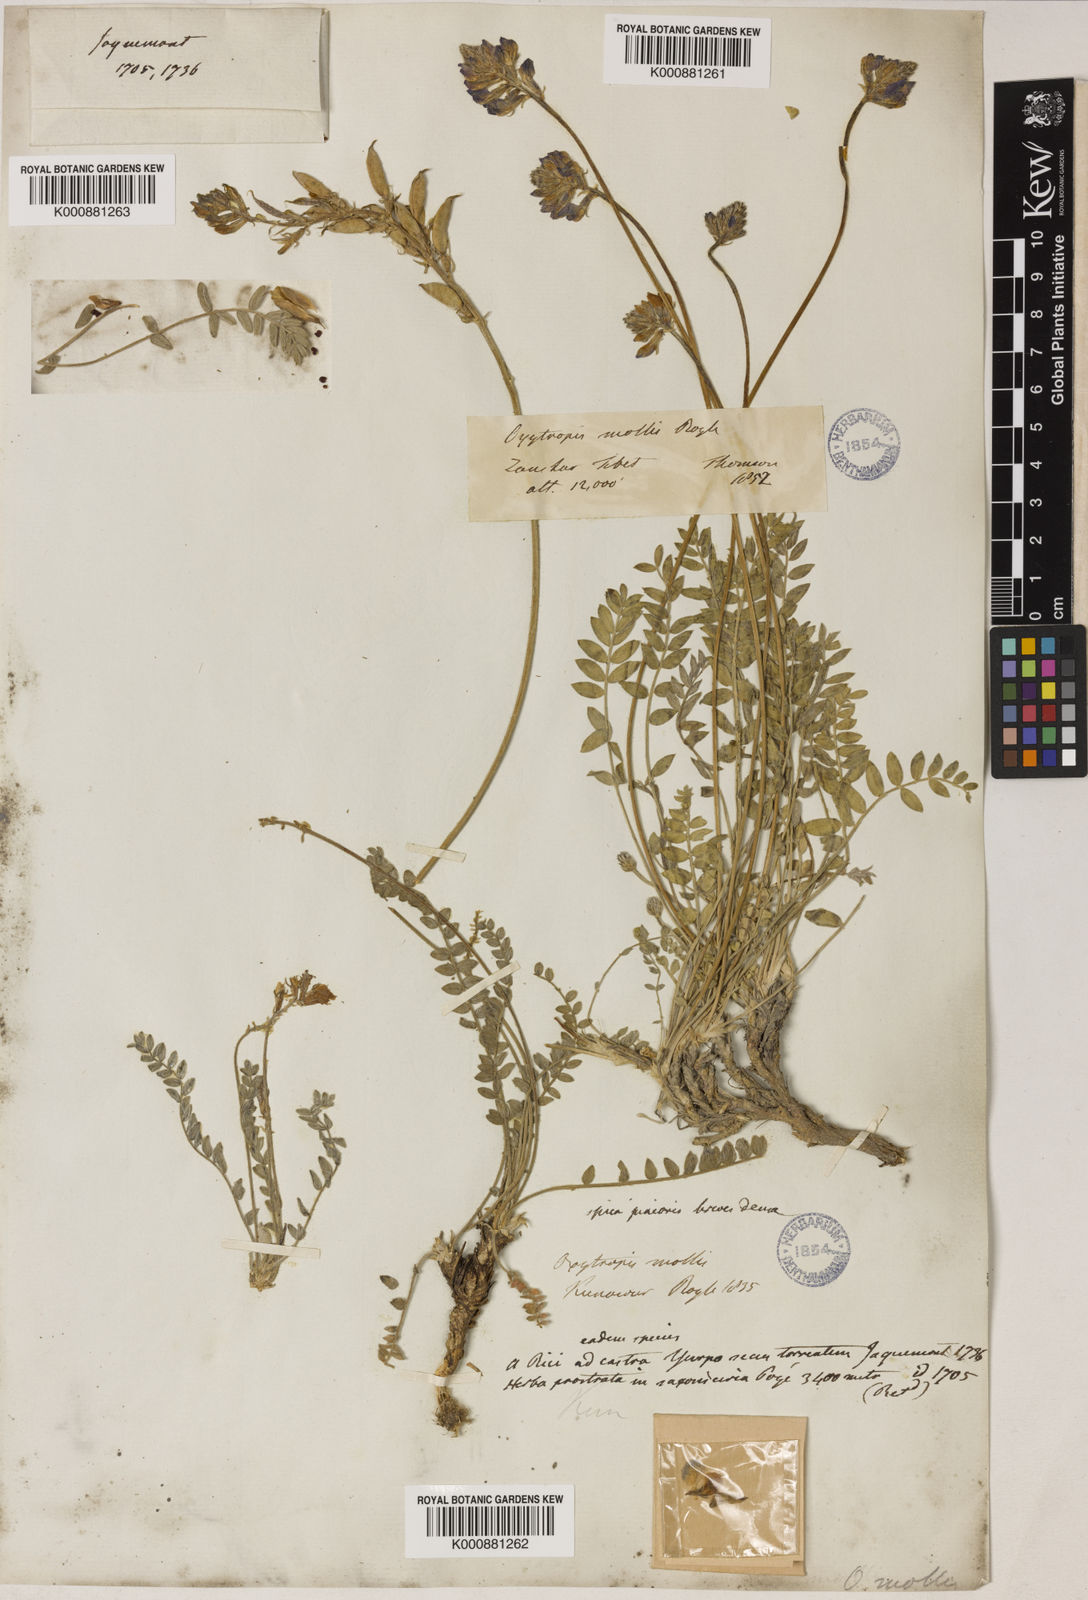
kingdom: Plantae
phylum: Tracheophyta
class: Magnoliopsida
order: Fabales
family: Fabaceae
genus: Oxytropis
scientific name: Oxytropis mollis
